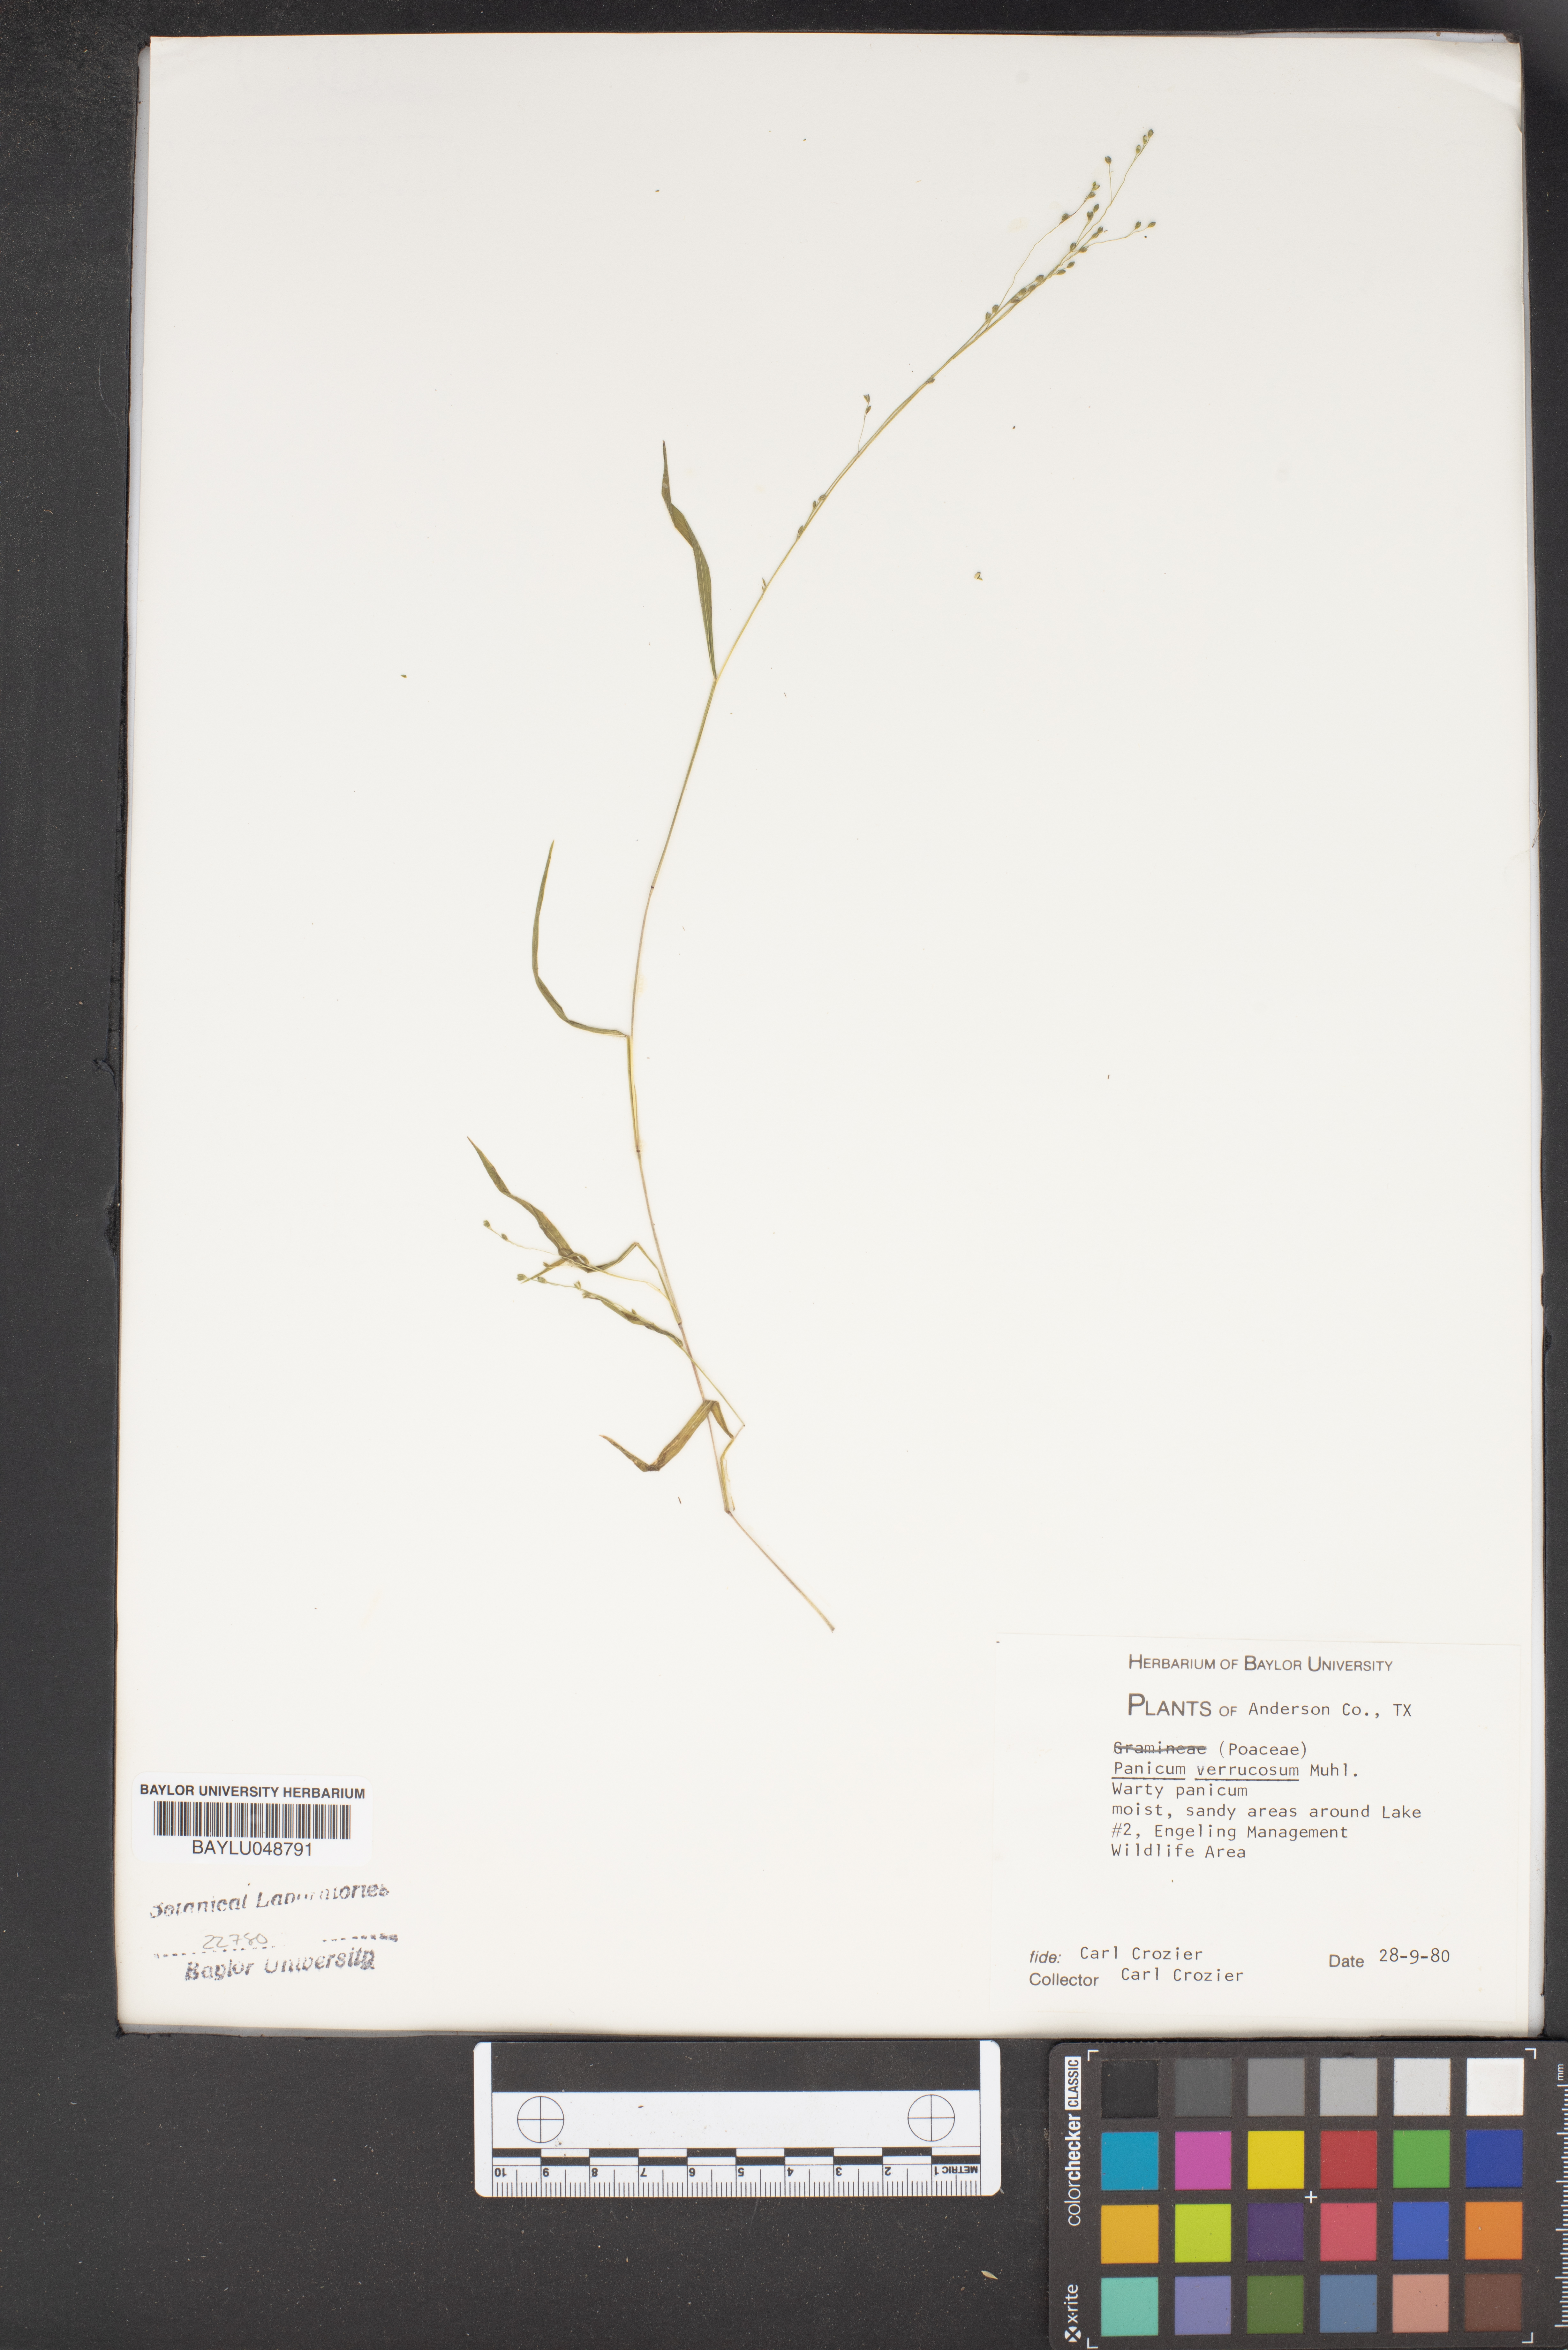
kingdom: Plantae
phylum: Tracheophyta
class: Liliopsida
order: Poales
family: Poaceae
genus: Kellochloa
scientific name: Kellochloa verrucosa
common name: Warty panic grass
